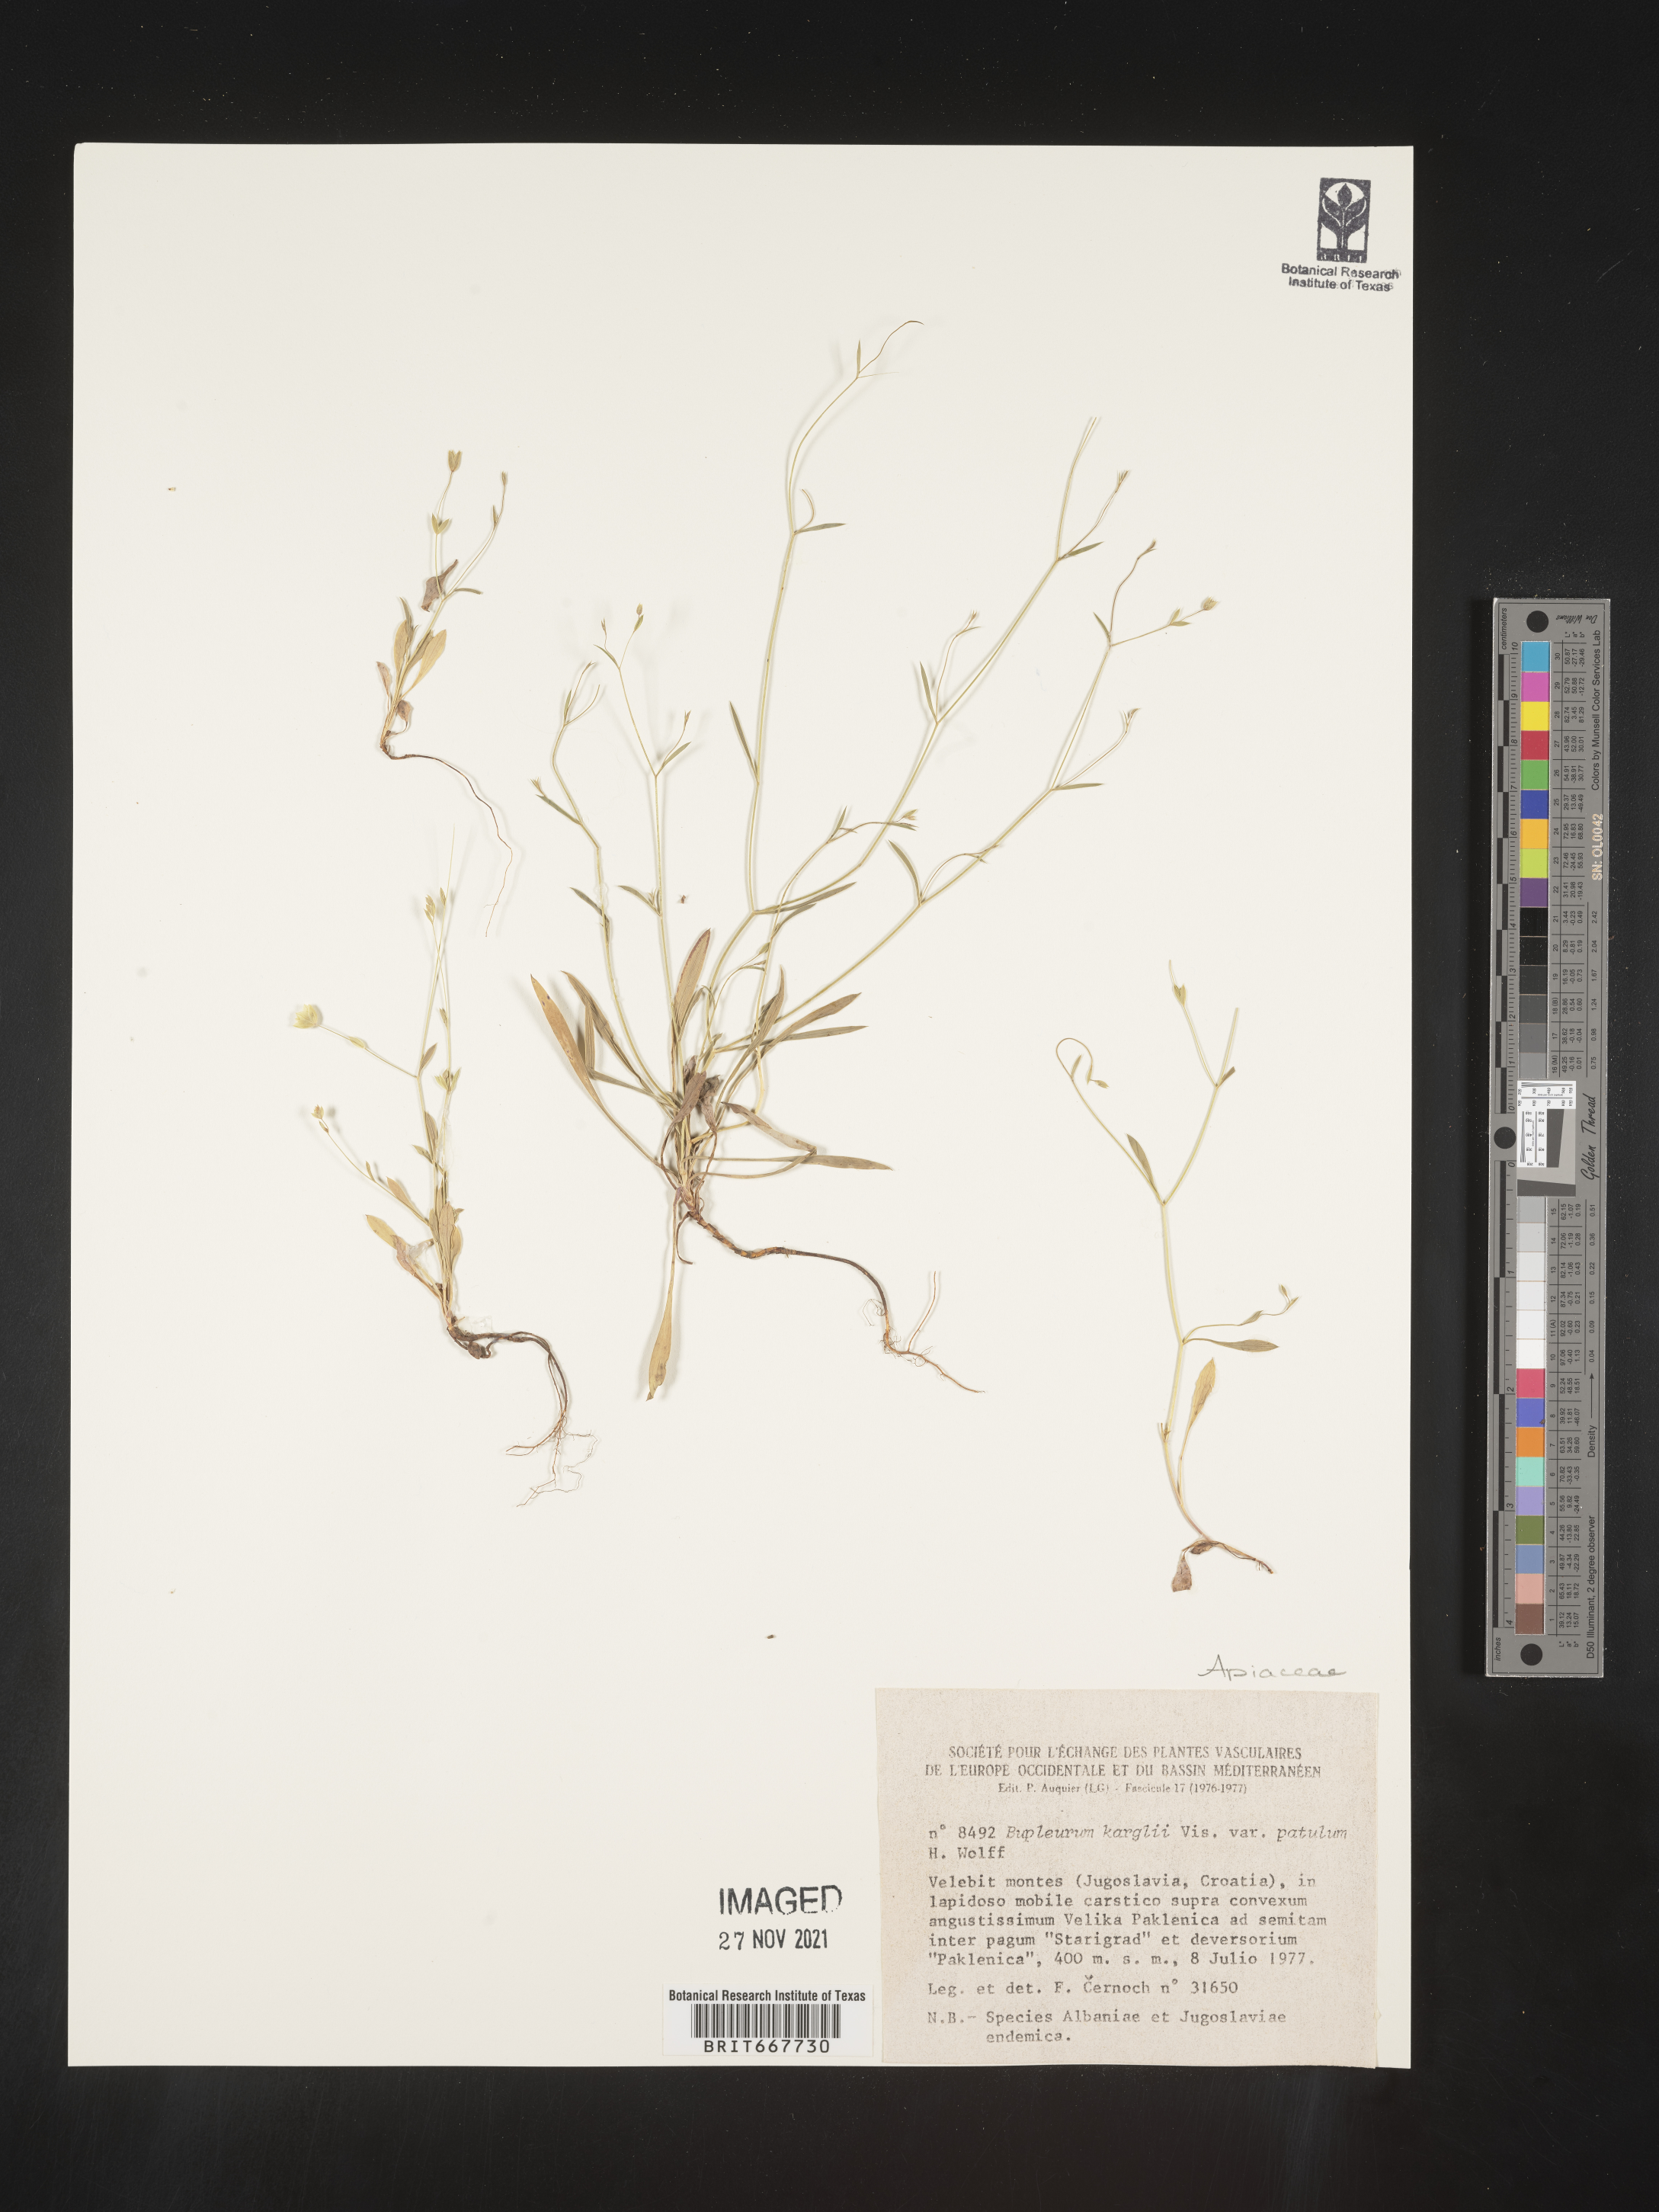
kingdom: Plantae
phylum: Tracheophyta
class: Magnoliopsida
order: Apiales
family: Apiaceae
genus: Bupleurum
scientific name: Bupleurum
